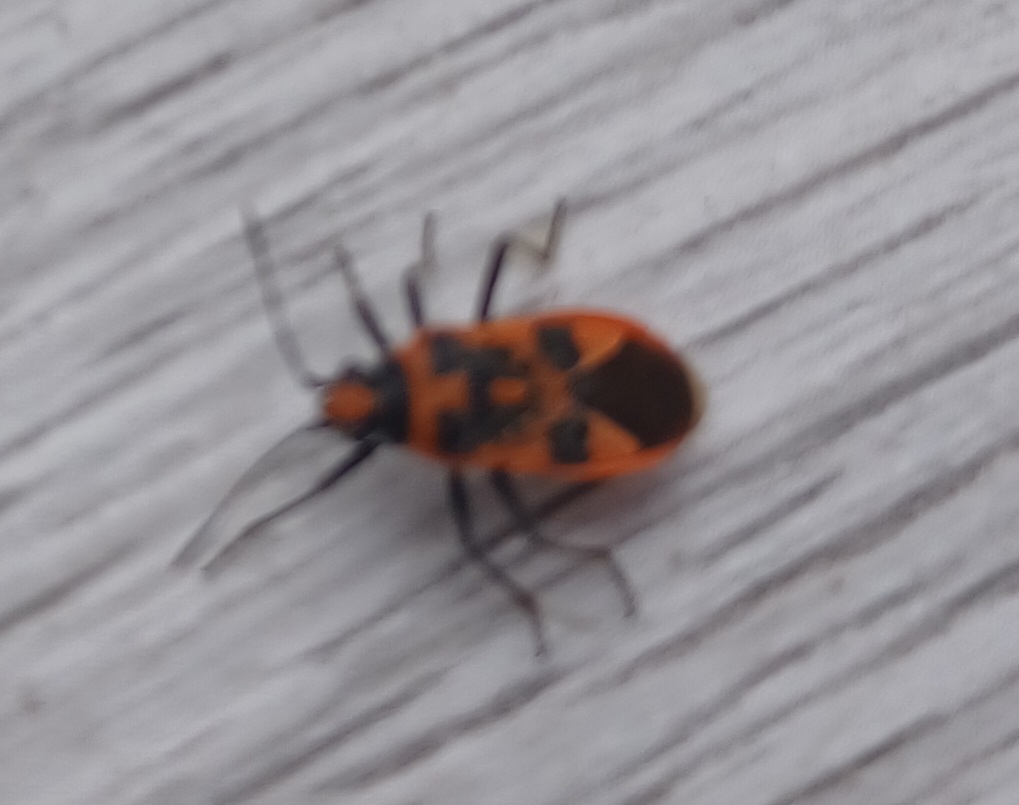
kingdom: Animalia
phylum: Arthropoda
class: Insecta
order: Hemiptera
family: Rhopalidae
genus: Corizus
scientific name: Corizus hyoscyami
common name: Rød kanttæge
